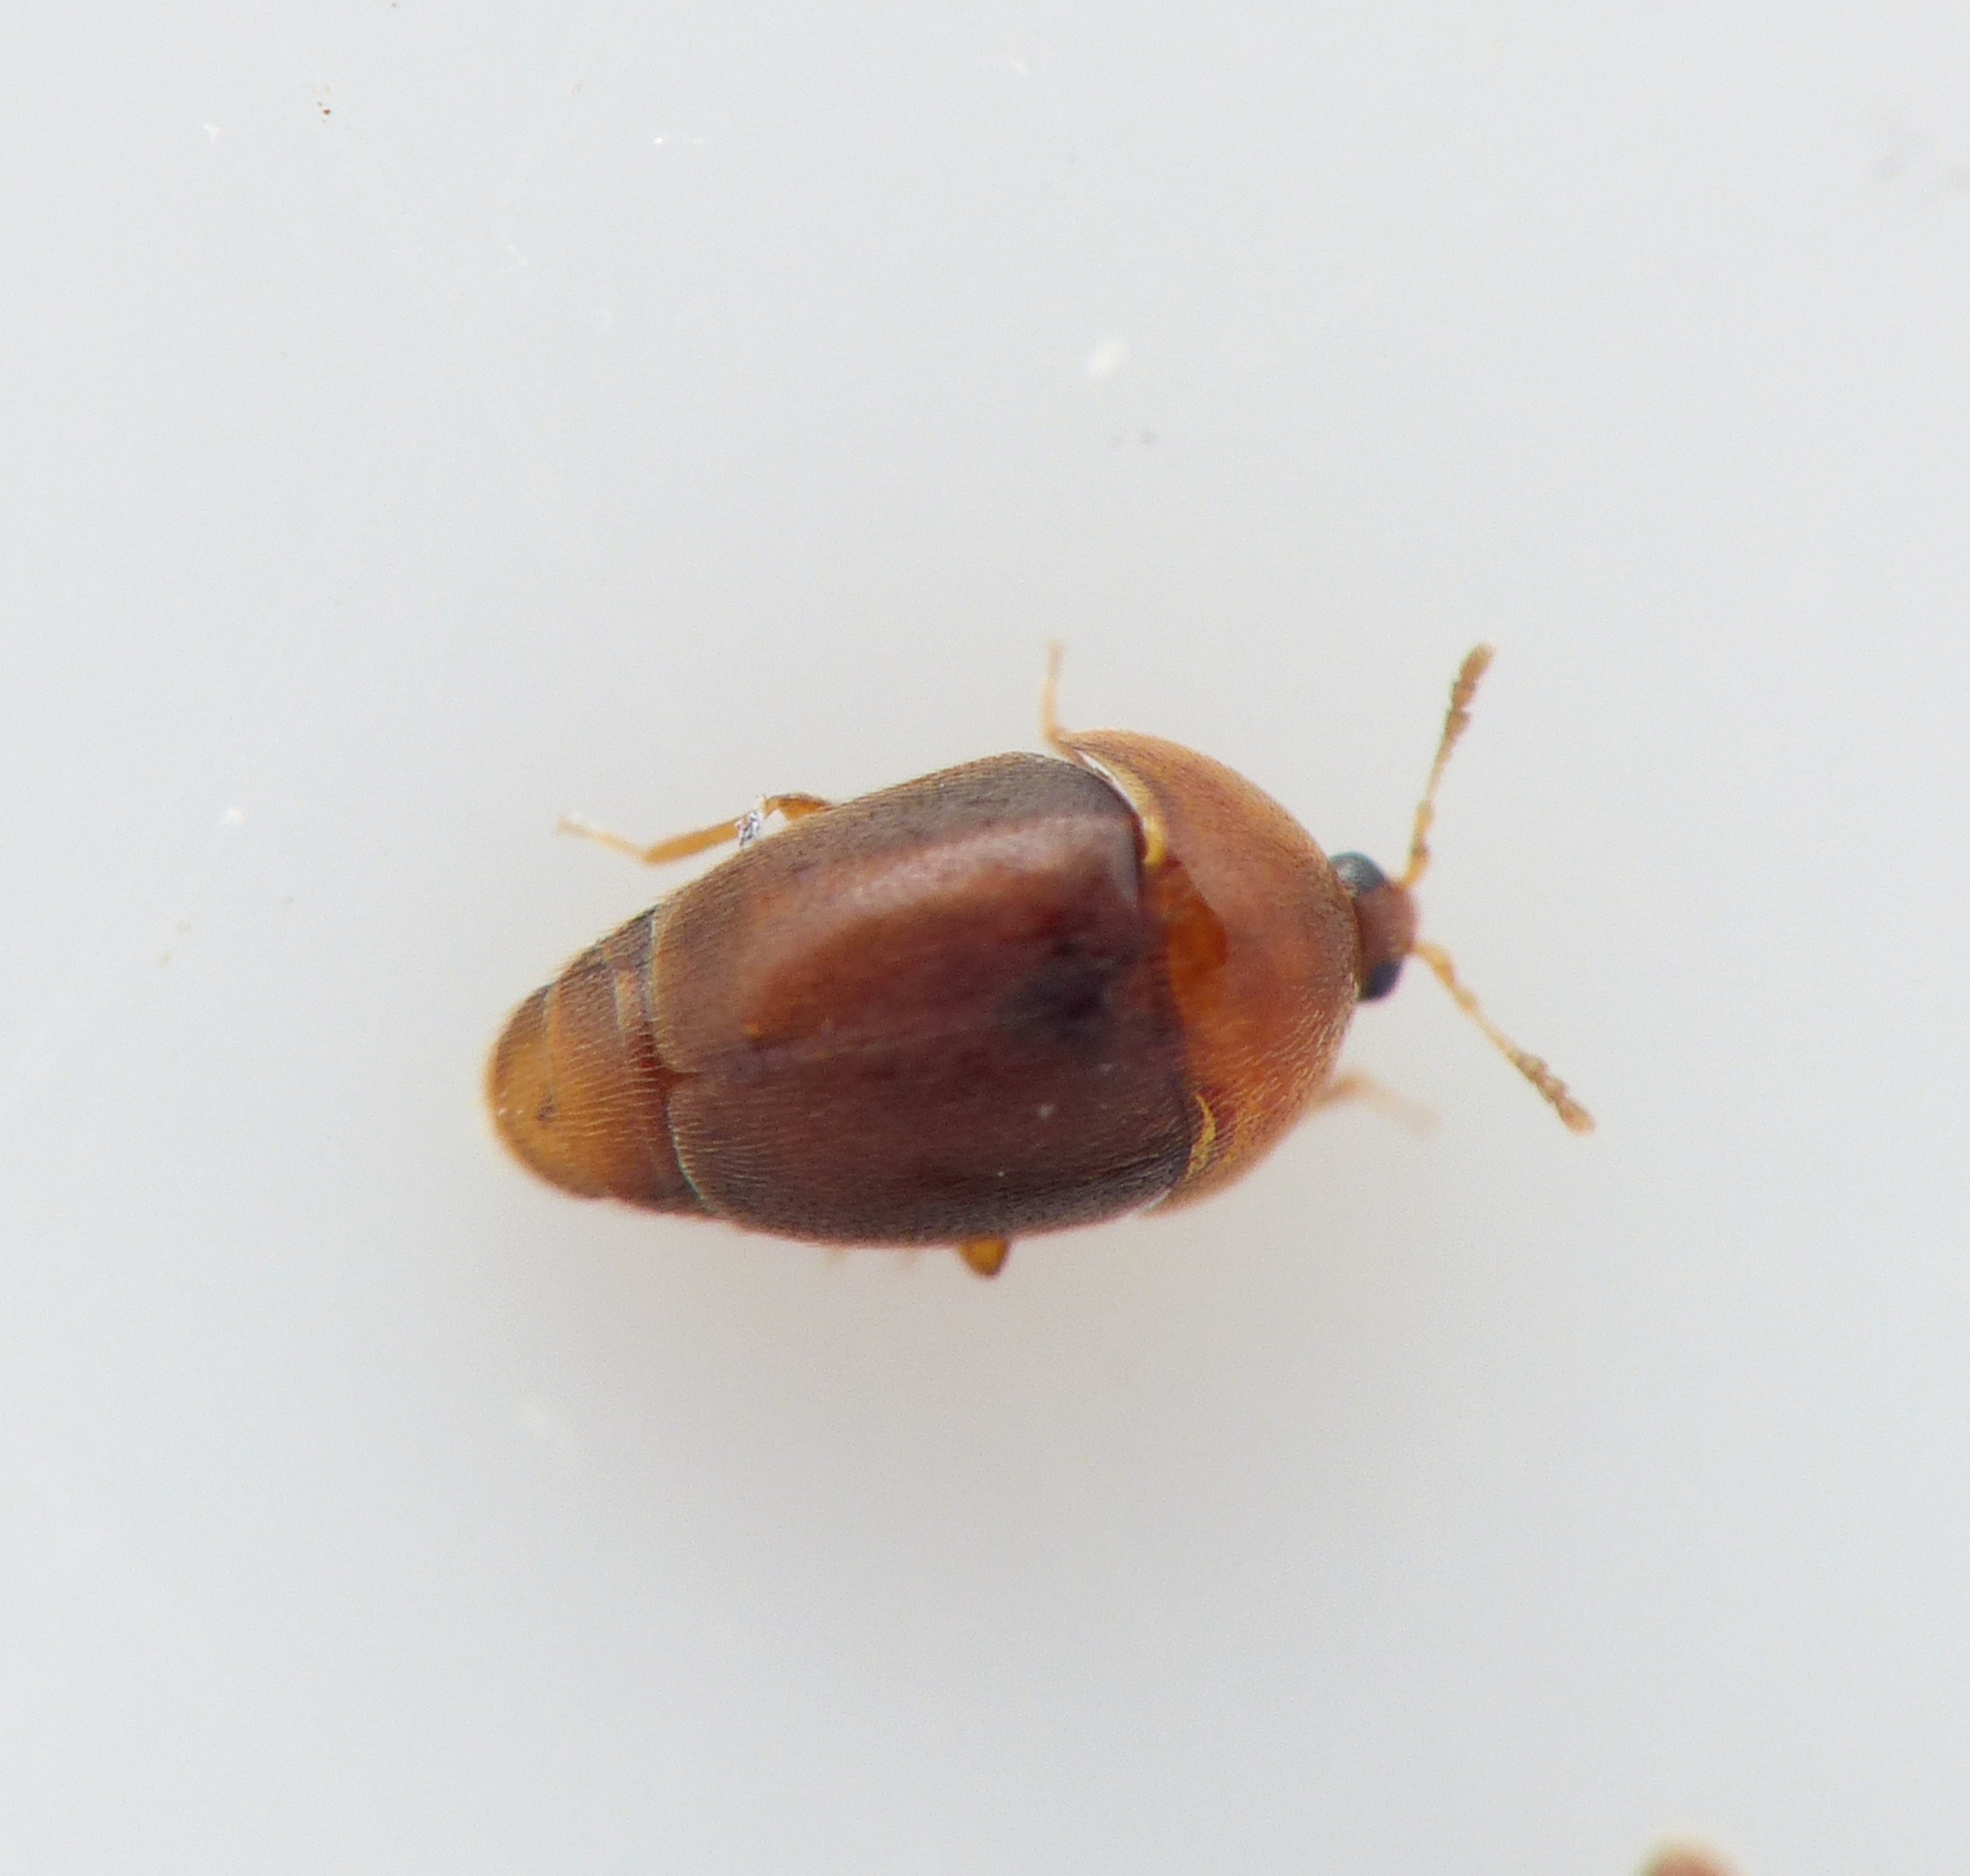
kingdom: Animalia
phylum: Arthropoda
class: Insecta
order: Coleoptera
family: Corylophidae
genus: Sericoderus
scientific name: Sericoderus lateralis
